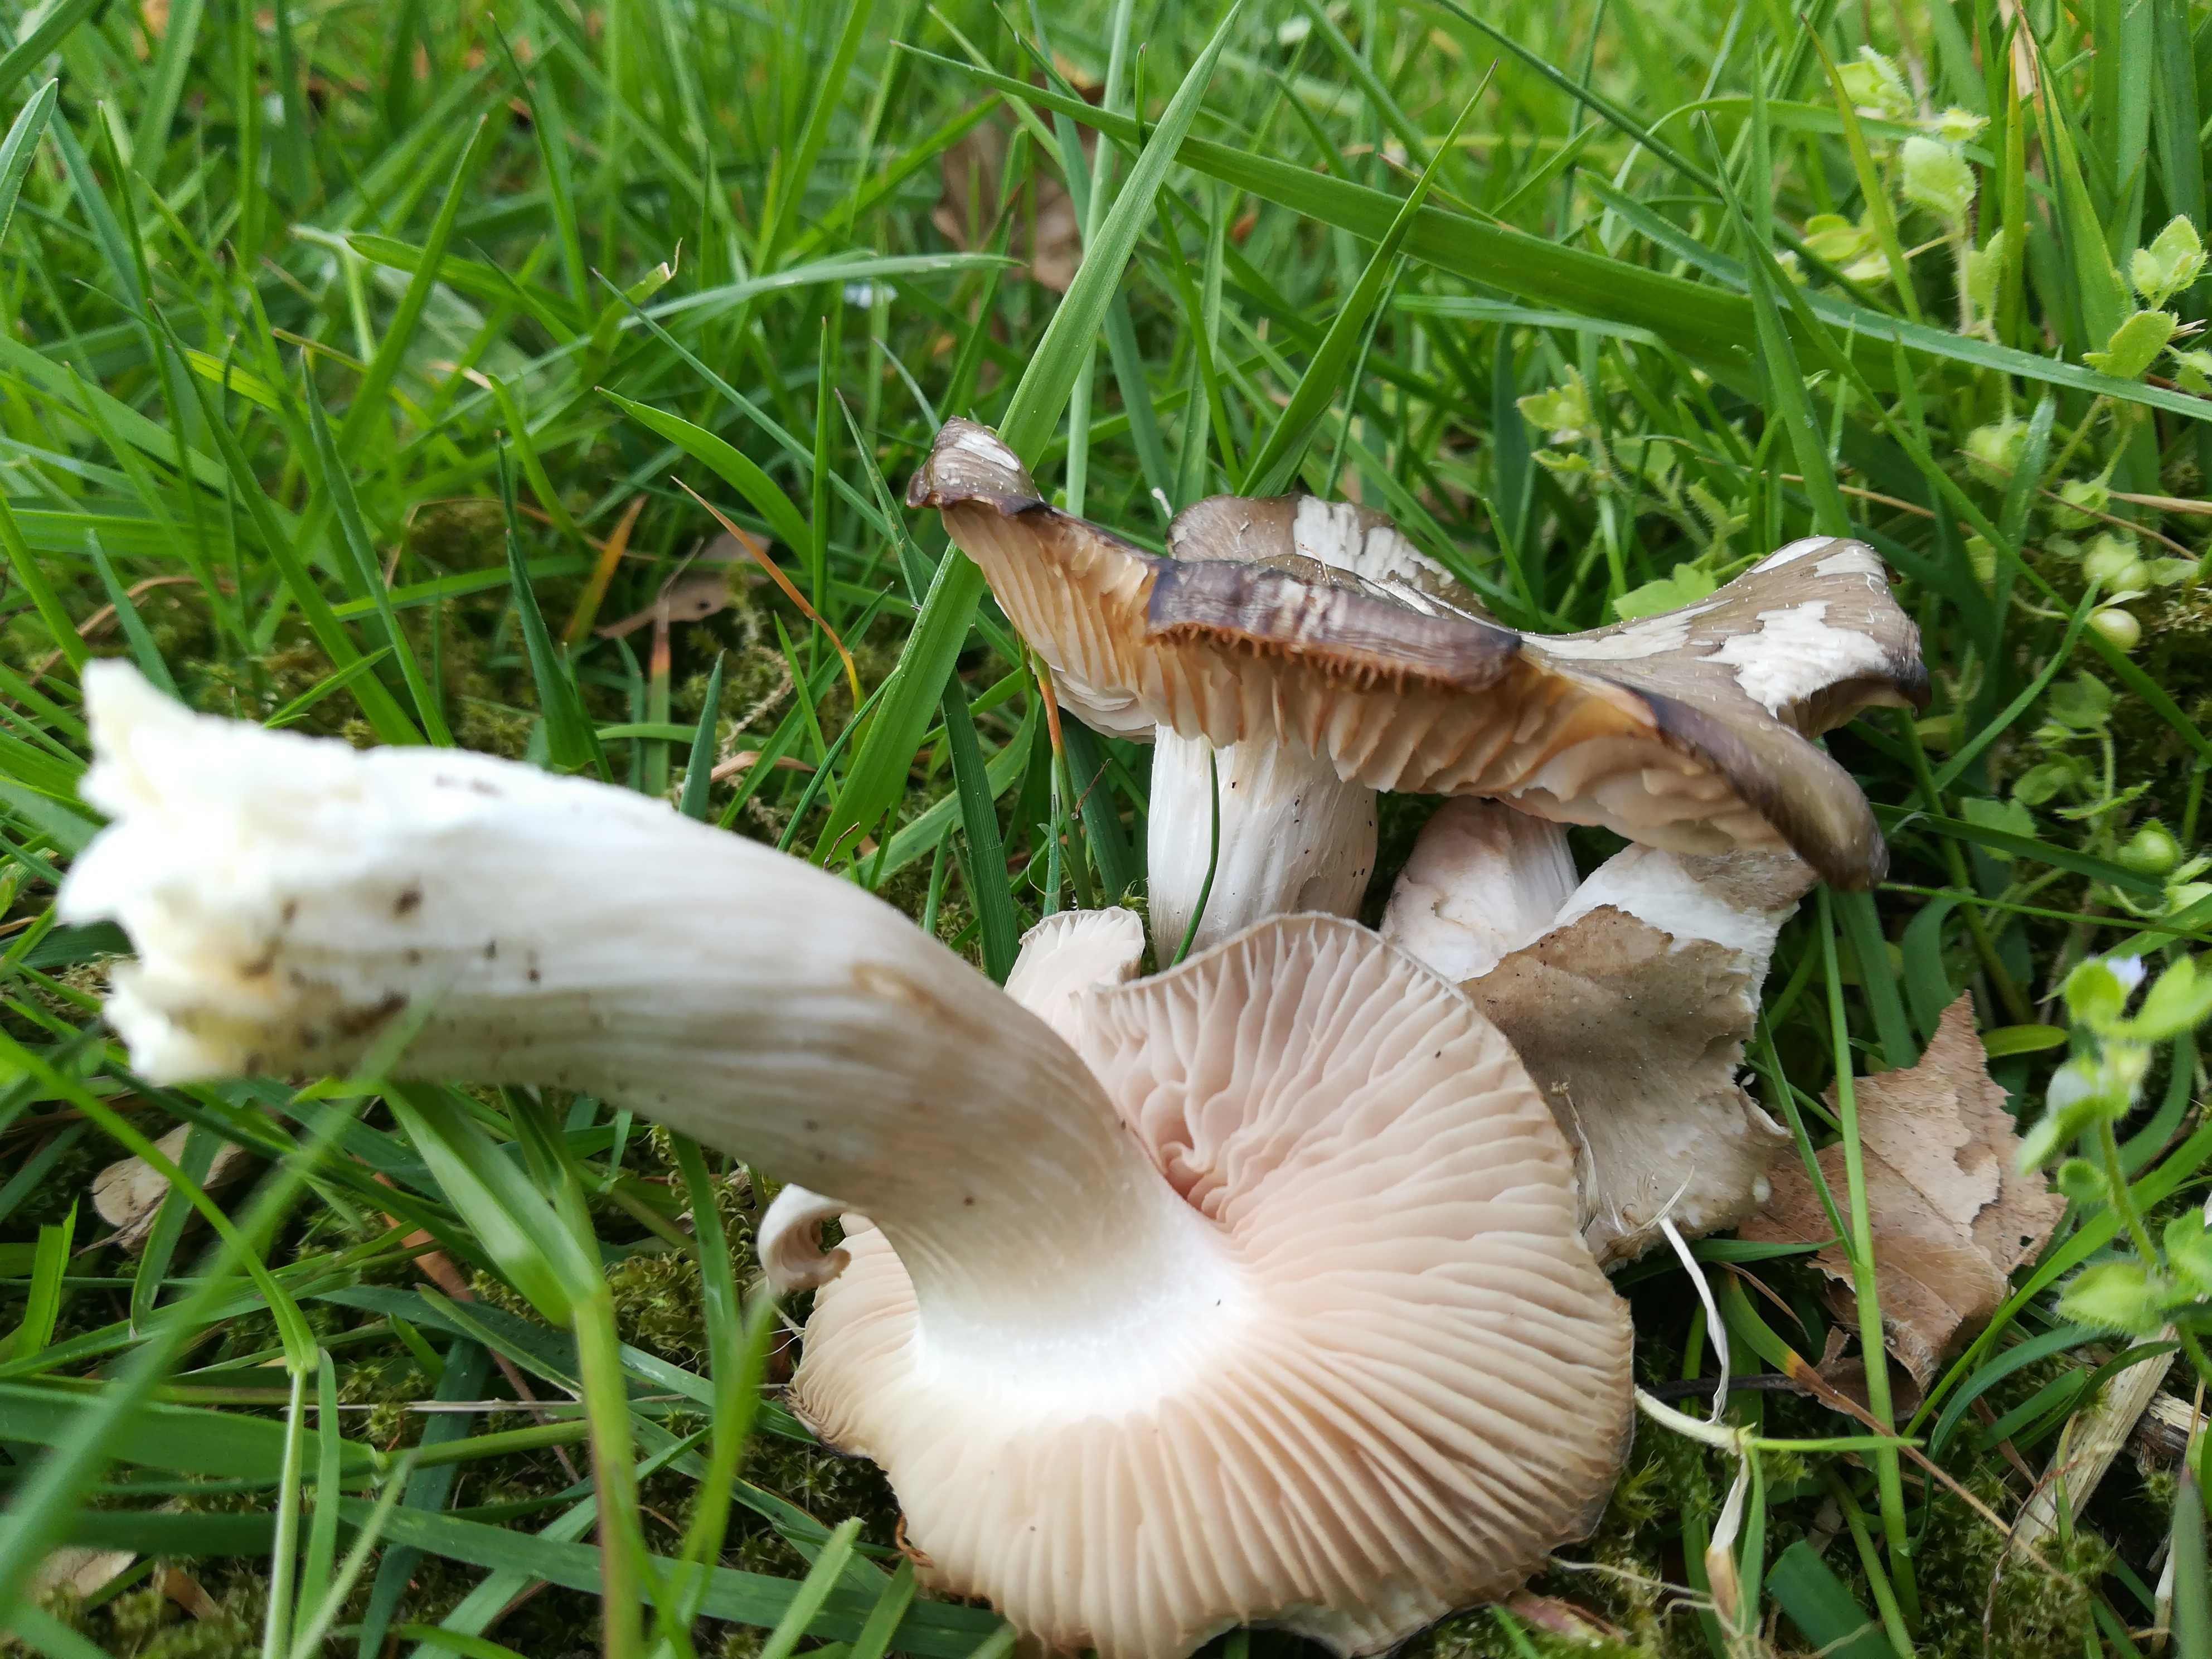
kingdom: Fungi
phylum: Basidiomycota
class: Agaricomycetes
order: Agaricales
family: Entolomataceae
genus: Entoloma
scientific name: Entoloma clypeatum
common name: flammet rødblad
